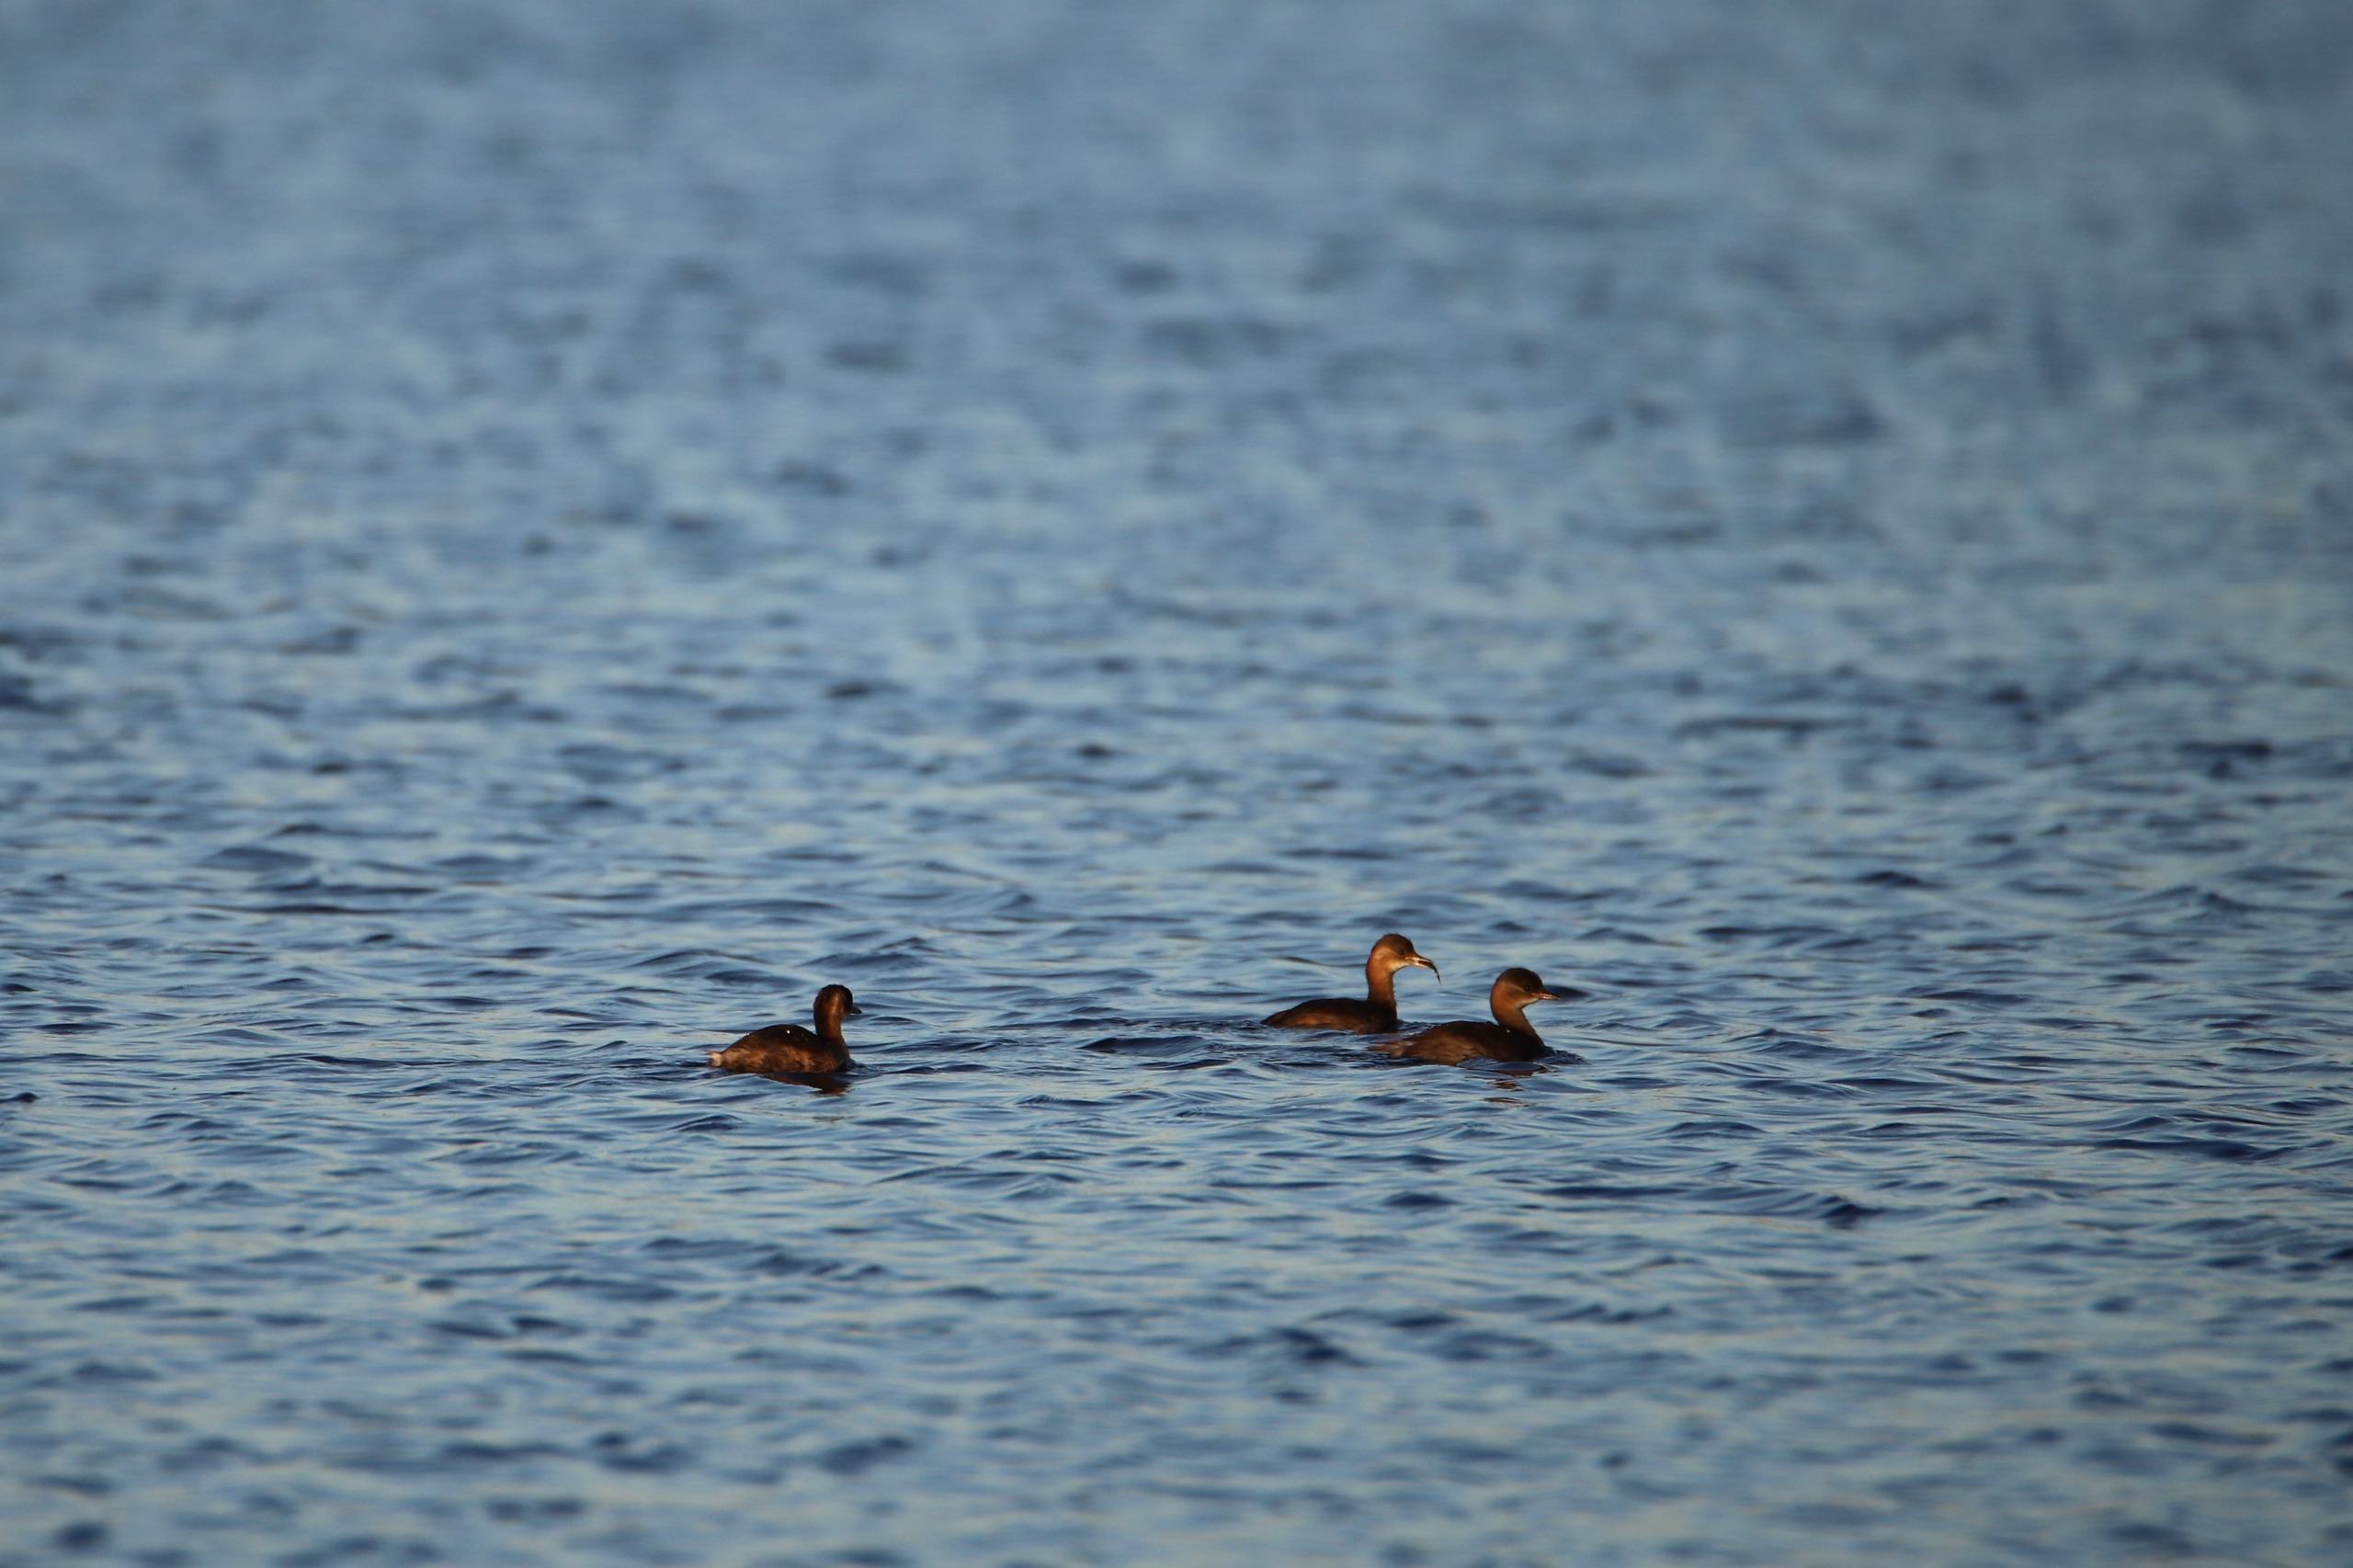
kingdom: Animalia
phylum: Chordata
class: Aves
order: Podicipediformes
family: Podicipedidae
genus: Tachybaptus
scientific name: Tachybaptus ruficollis
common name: Lille lappedykker
